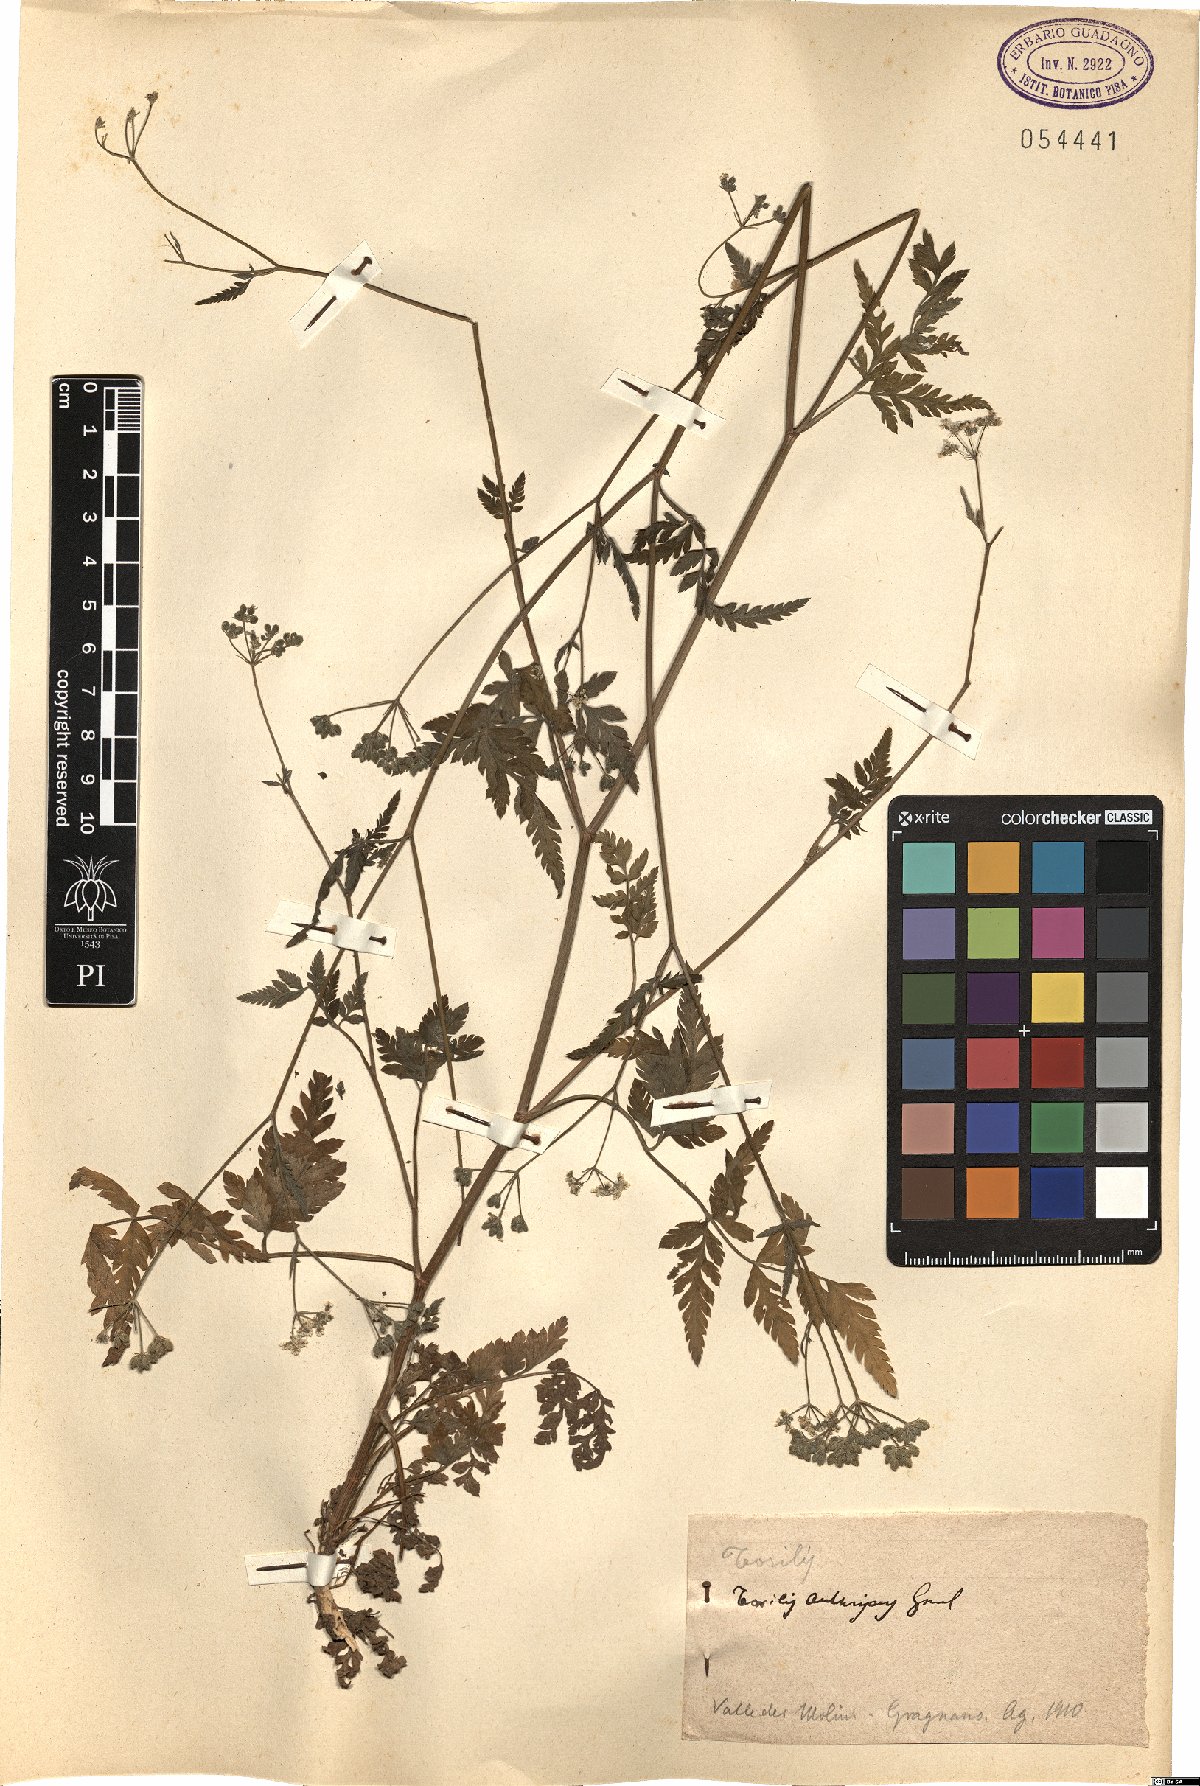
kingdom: Plantae
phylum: Tracheophyta
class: Magnoliopsida
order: Apiales
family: Apiaceae
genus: Torilis
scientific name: Torilis japonica
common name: Upright hedge-parsley
